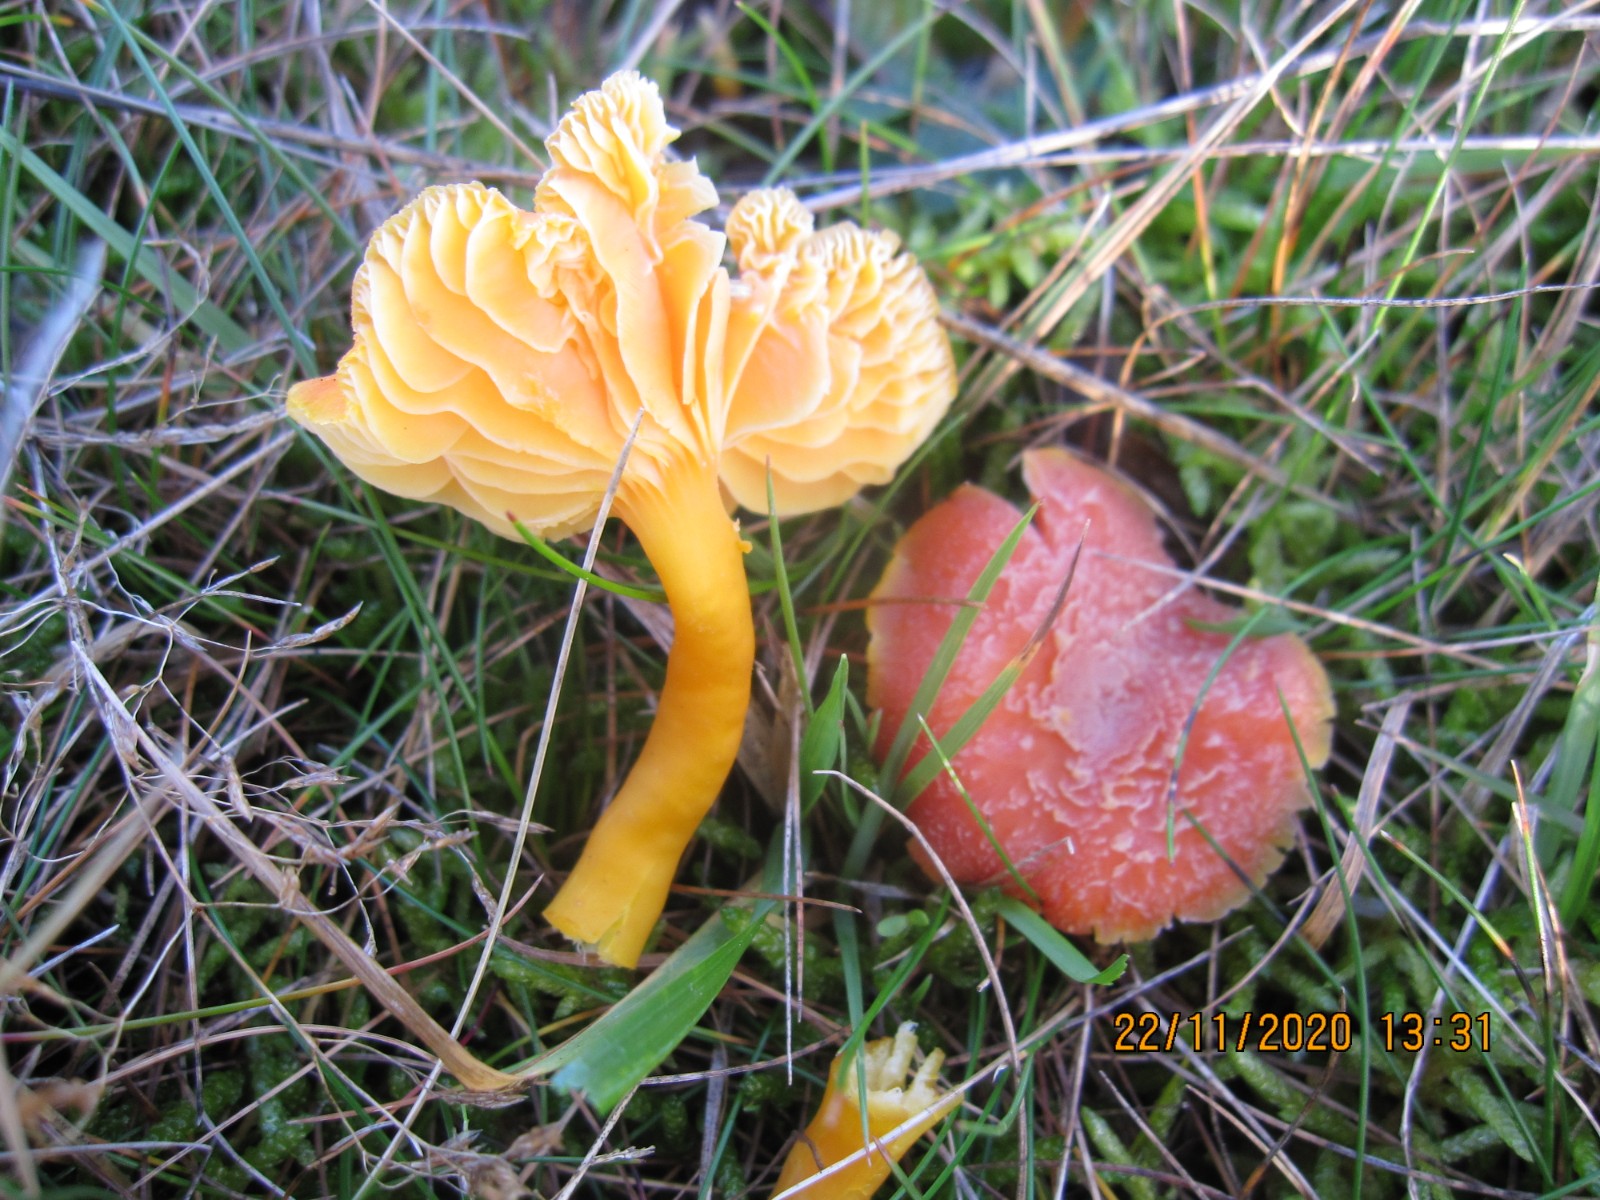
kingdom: Fungi
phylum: Basidiomycota
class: Agaricomycetes
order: Agaricales
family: Hygrophoraceae
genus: Hygrocybe
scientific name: Hygrocybe miniata
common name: mønje-vokshat
